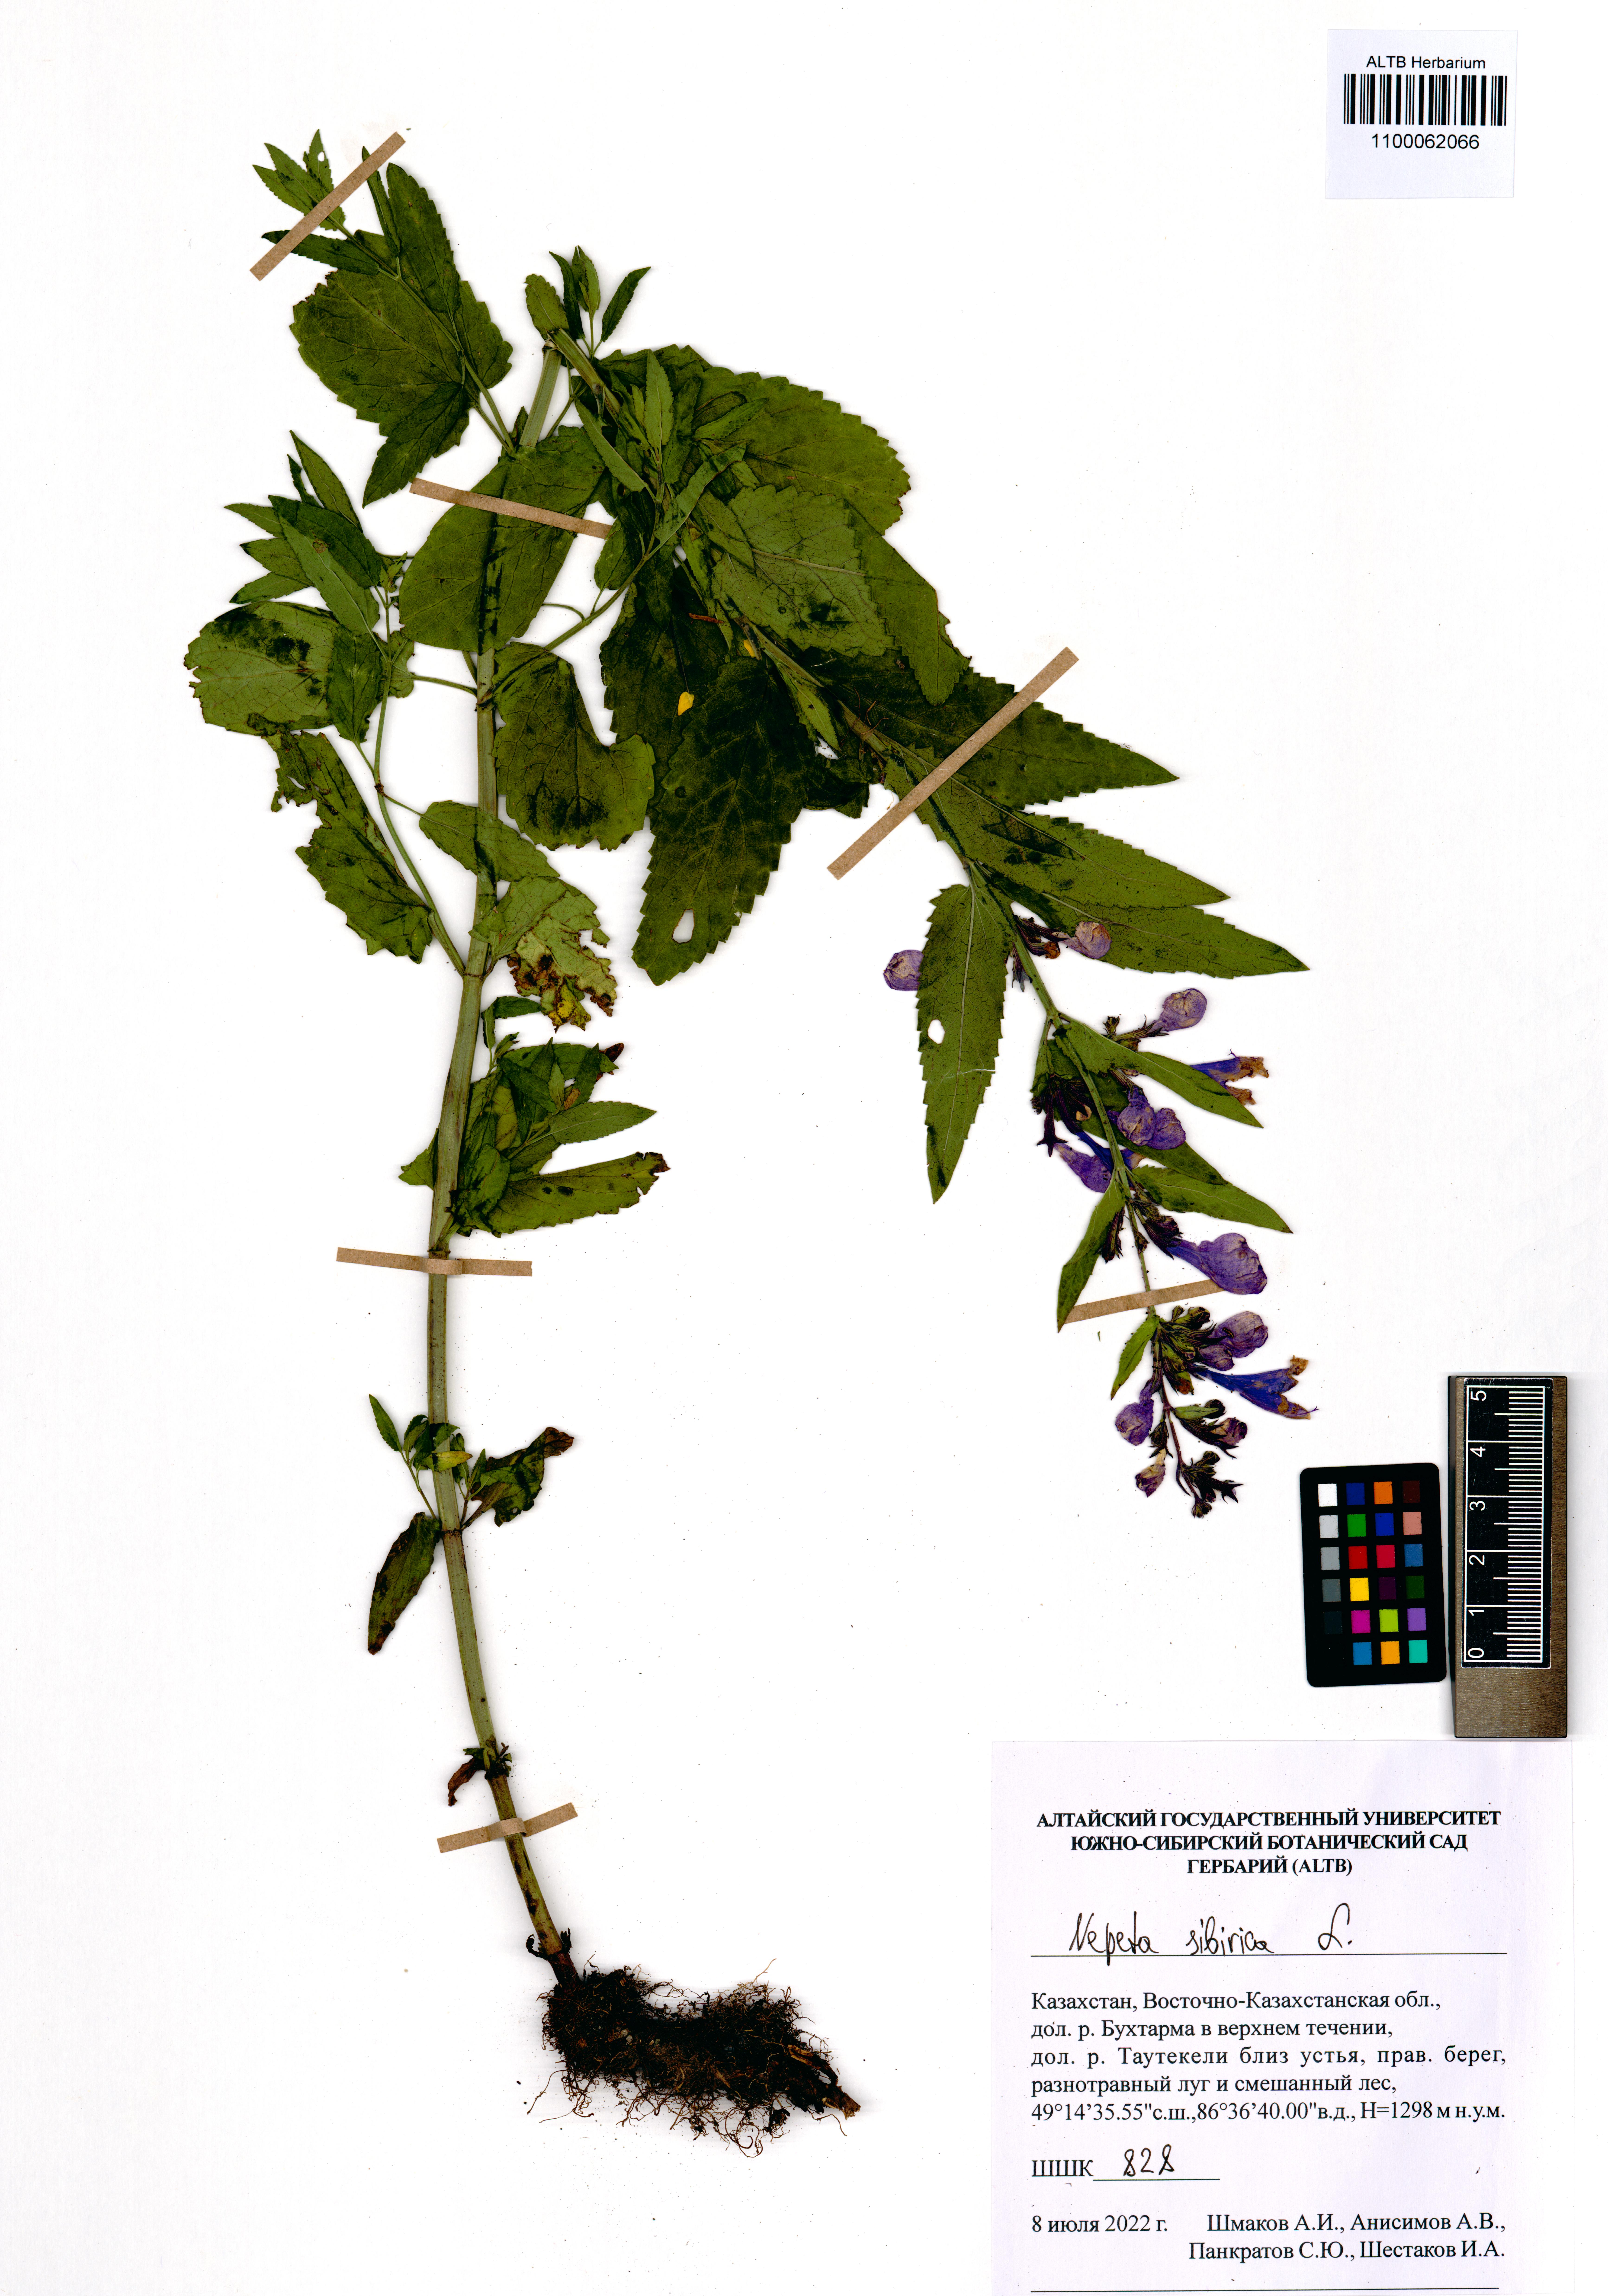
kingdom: Plantae
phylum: Tracheophyta
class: Magnoliopsida
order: Lamiales
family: Lamiaceae
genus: Nepeta
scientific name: Nepeta sibirica
